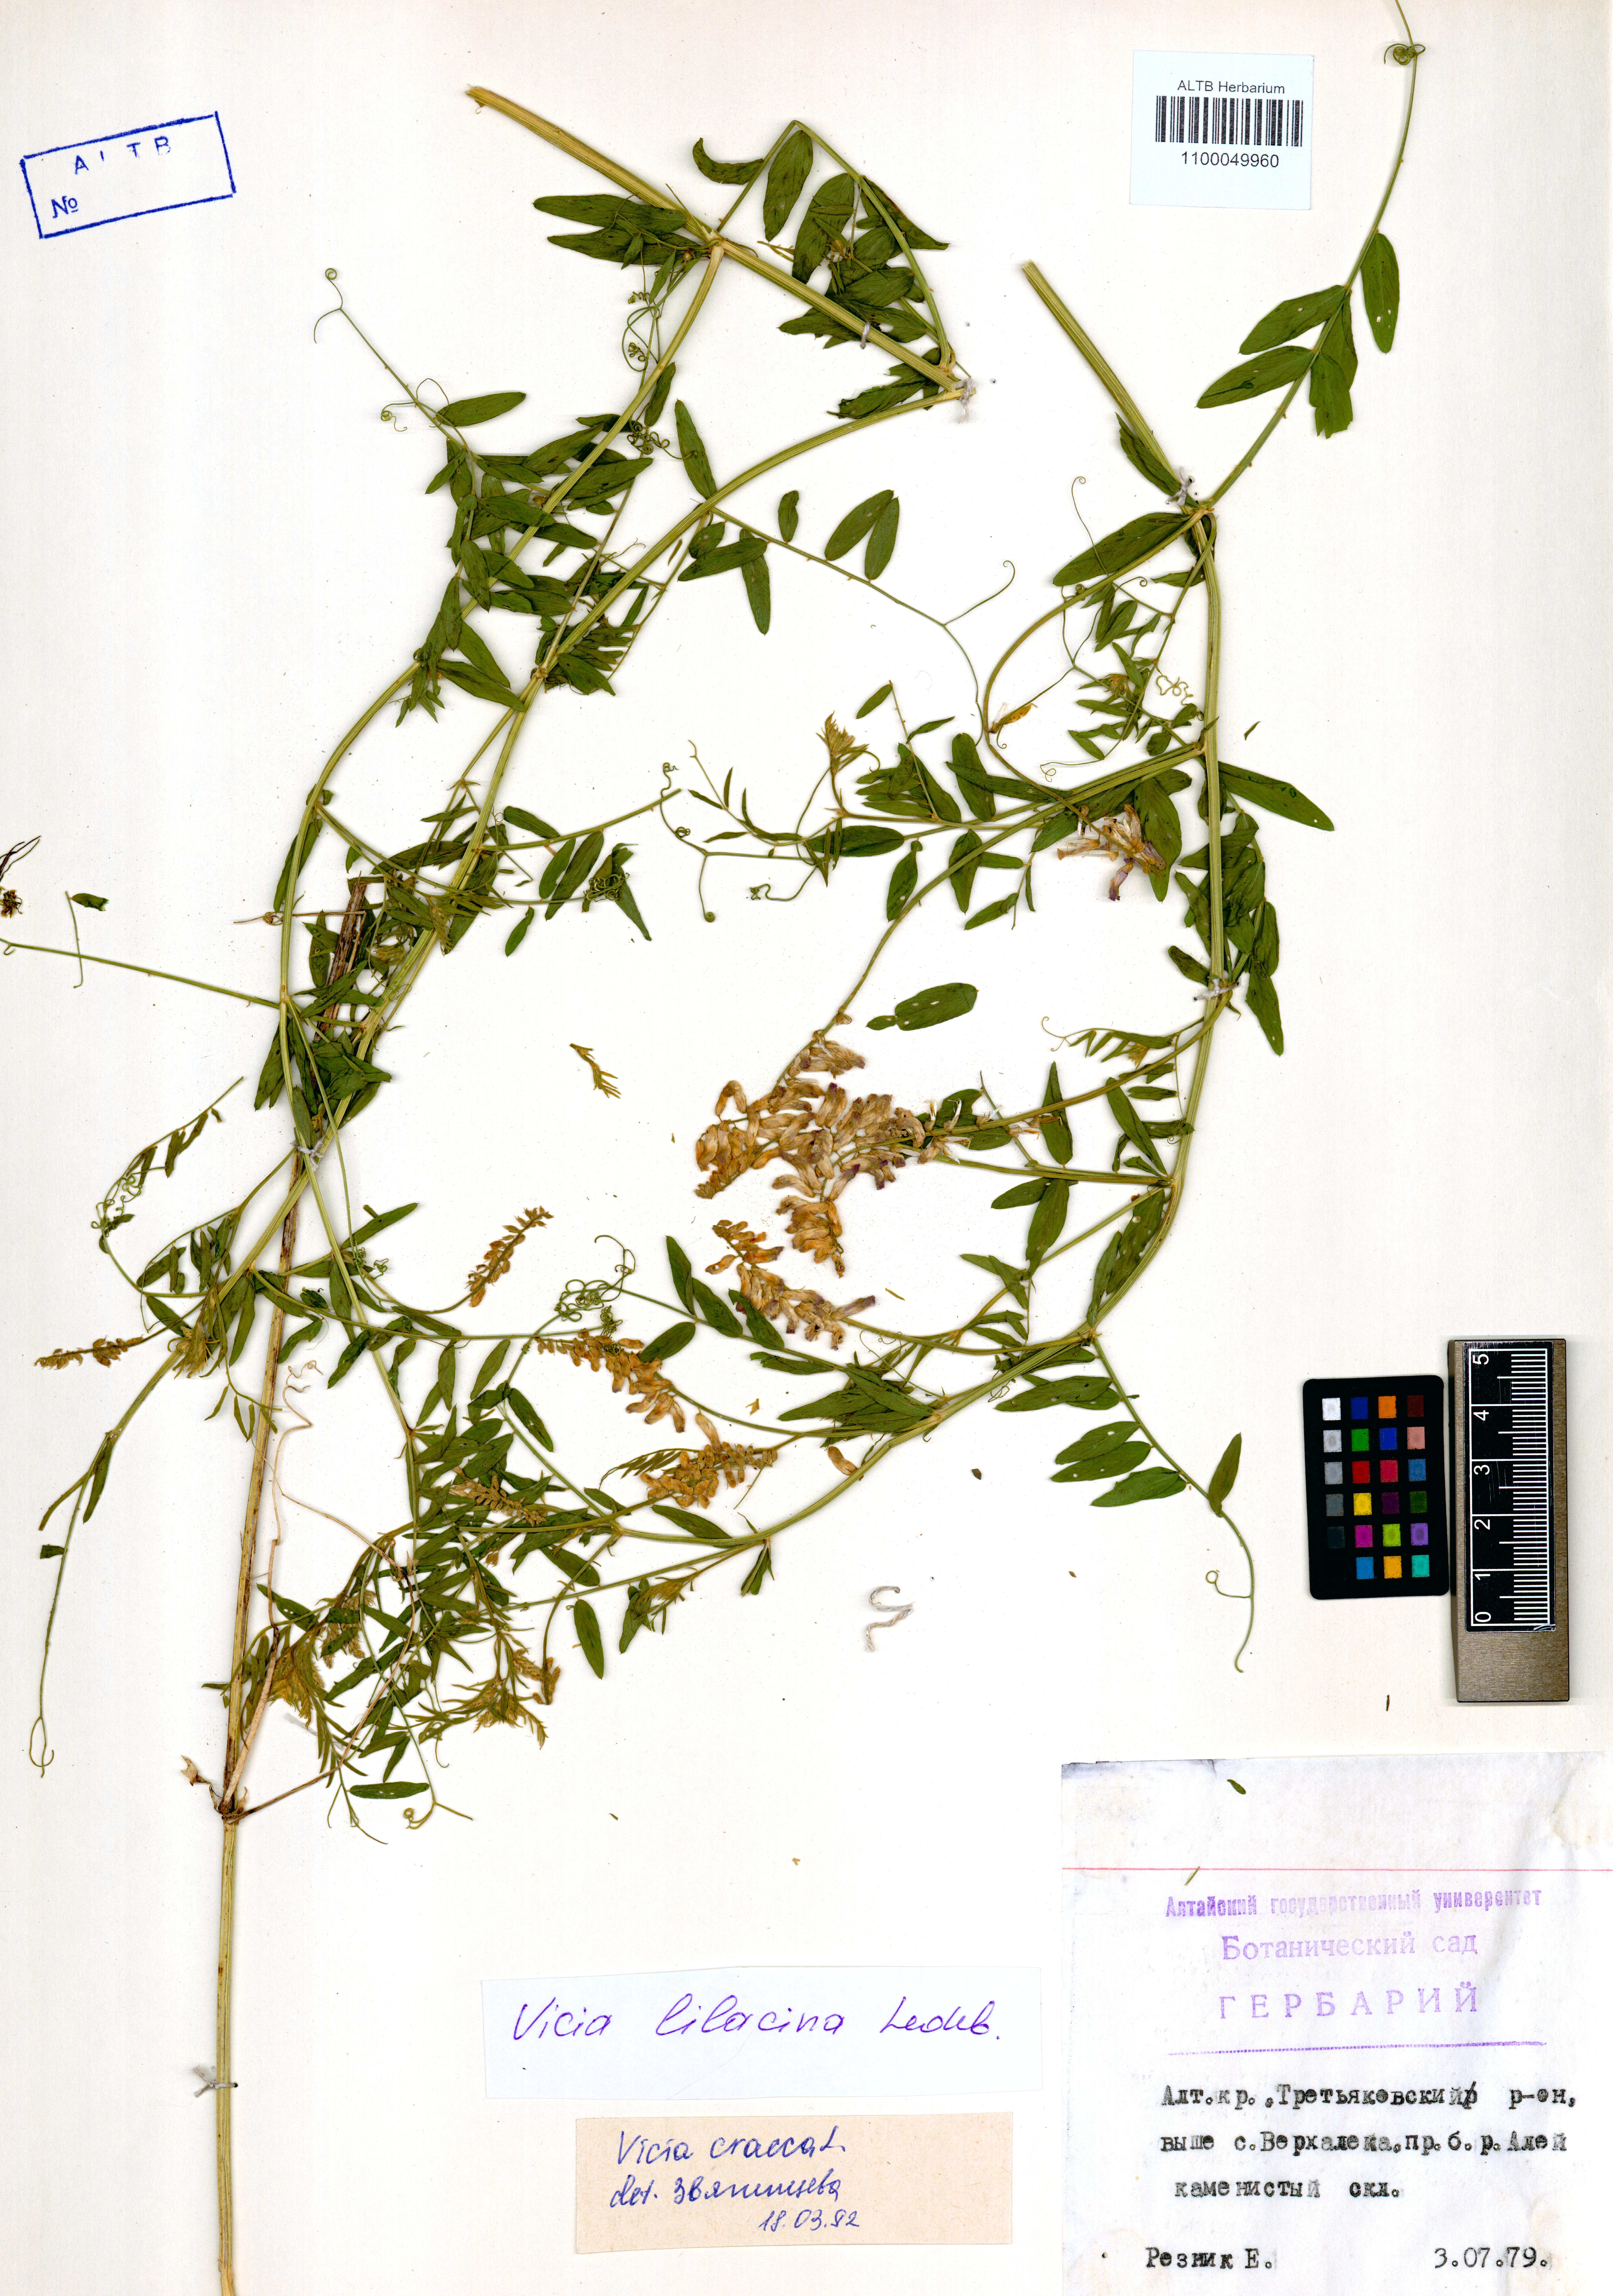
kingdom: Plantae
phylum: Tracheophyta
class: Magnoliopsida
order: Fabales
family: Fabaceae
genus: Vicia
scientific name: Vicia lilacina
